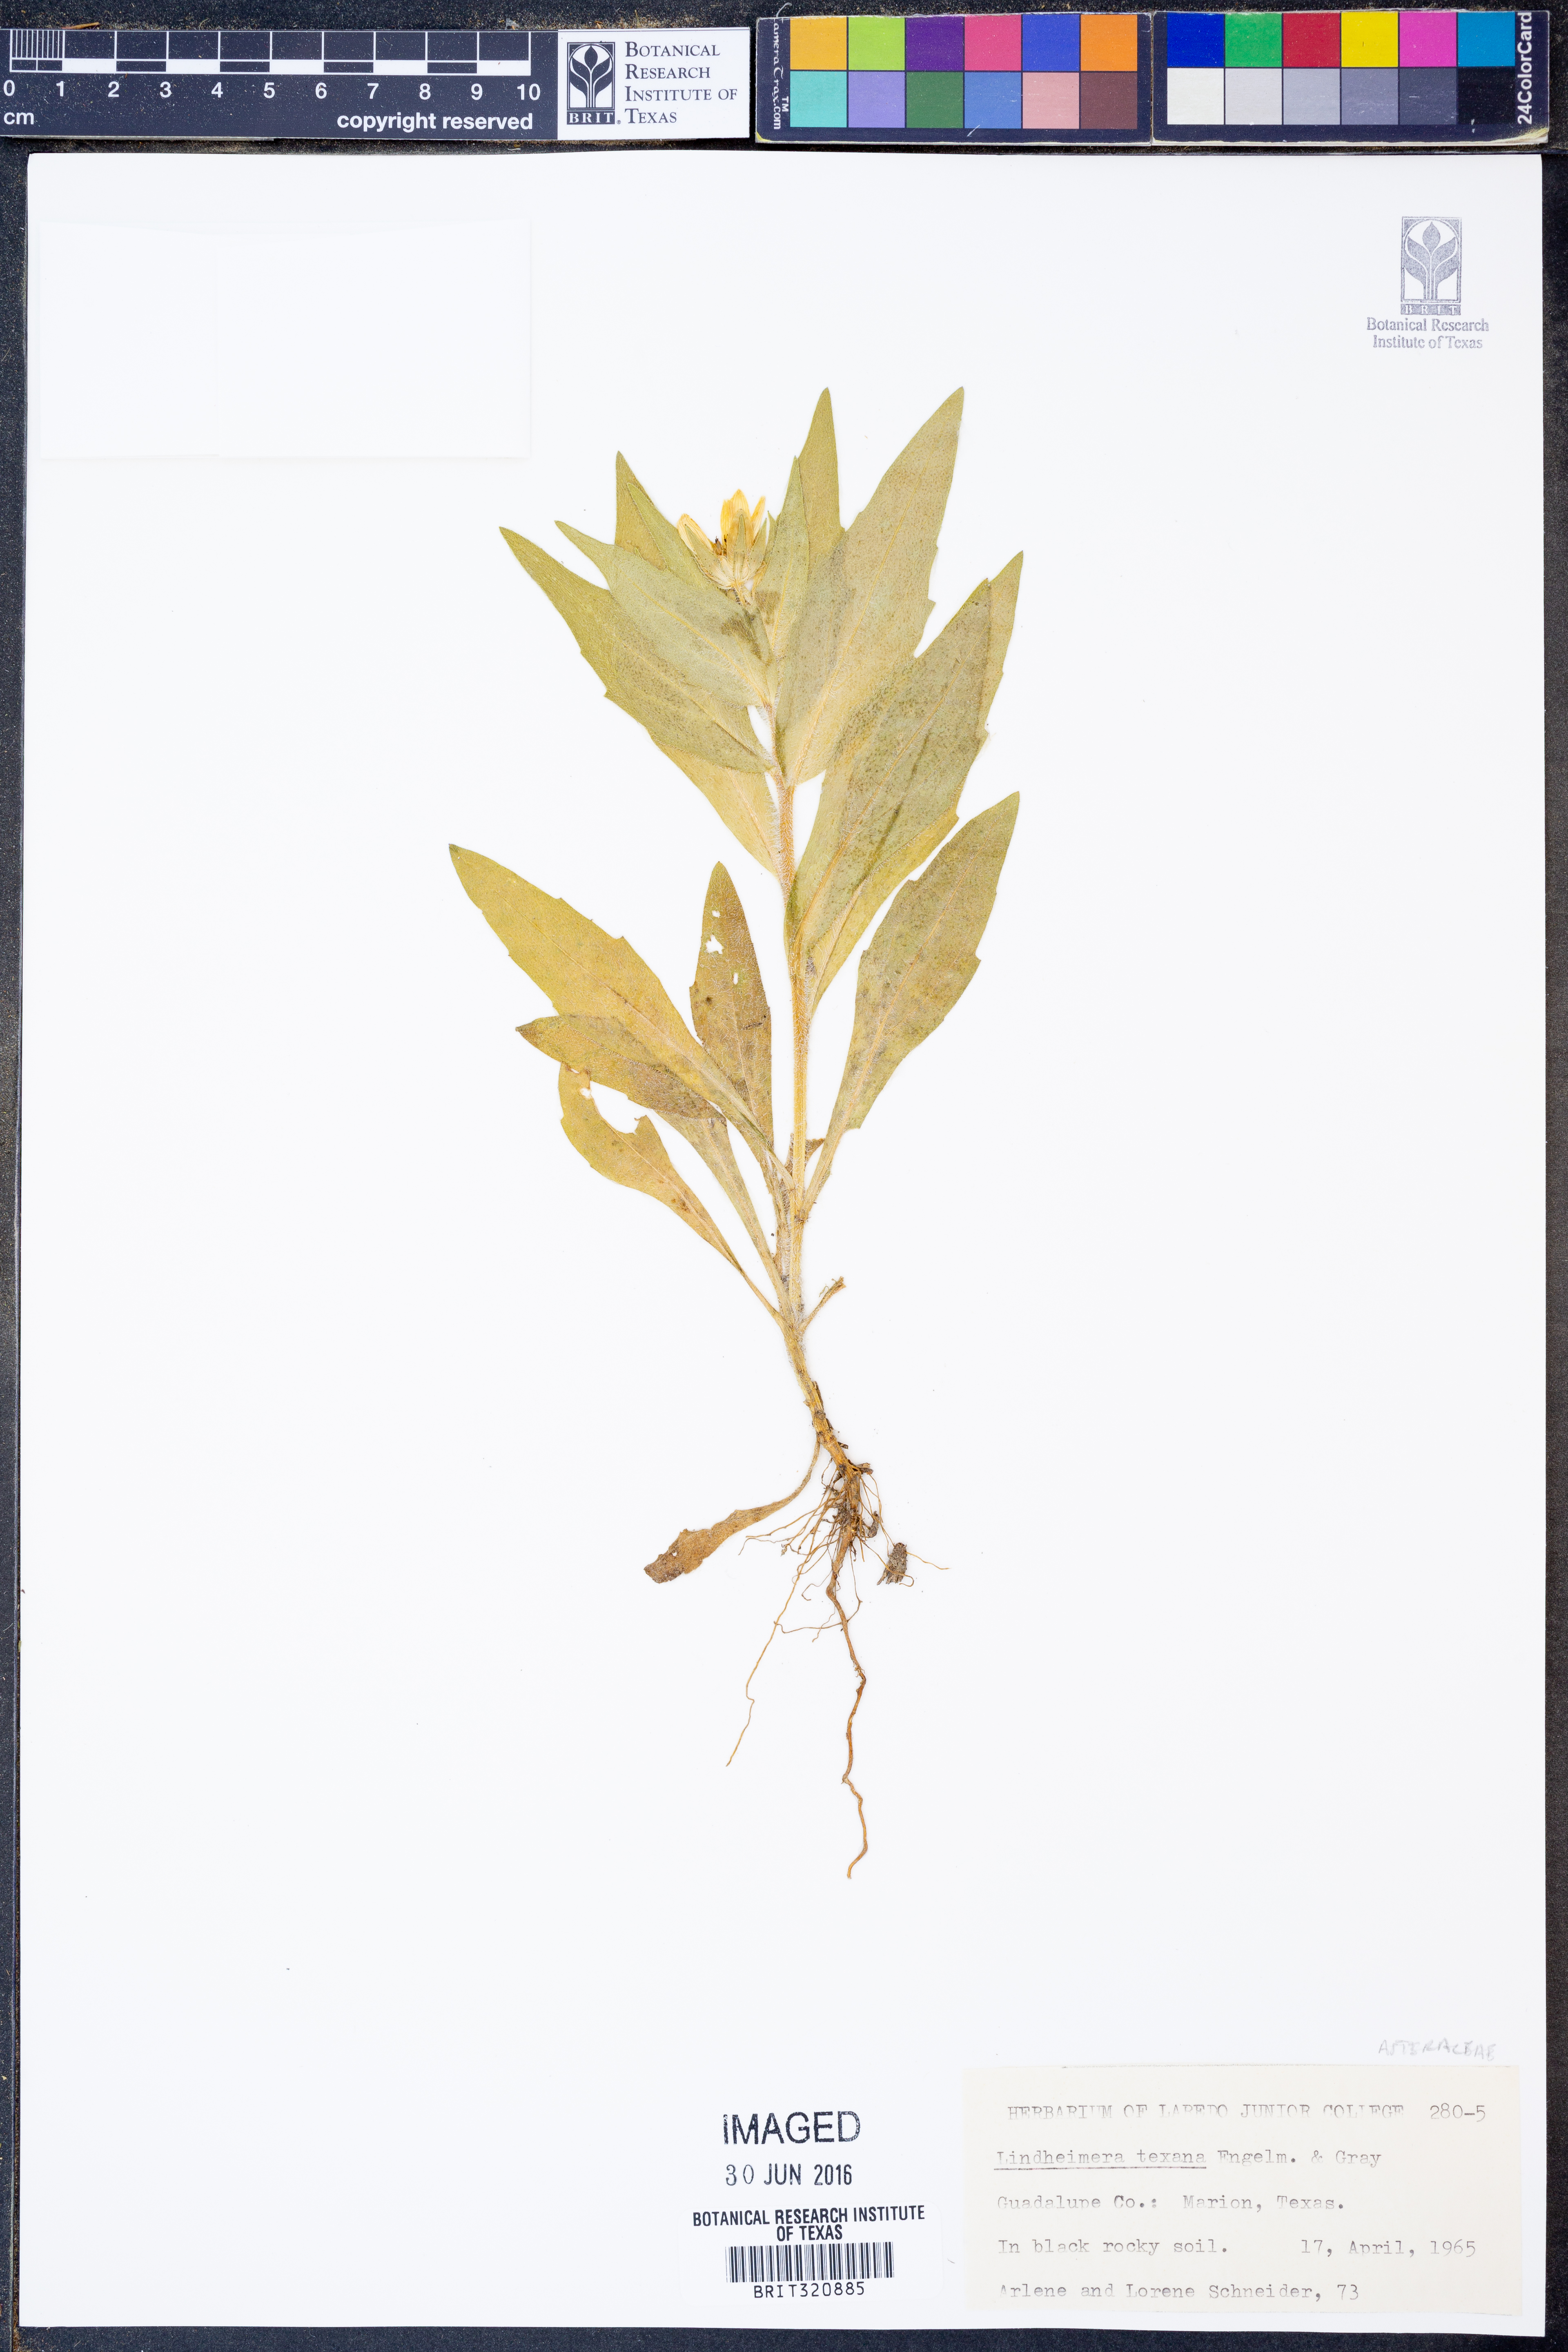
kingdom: Plantae
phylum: Tracheophyta
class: Magnoliopsida
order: Asterales
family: Asteraceae
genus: Lindheimera
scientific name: Lindheimera texana
